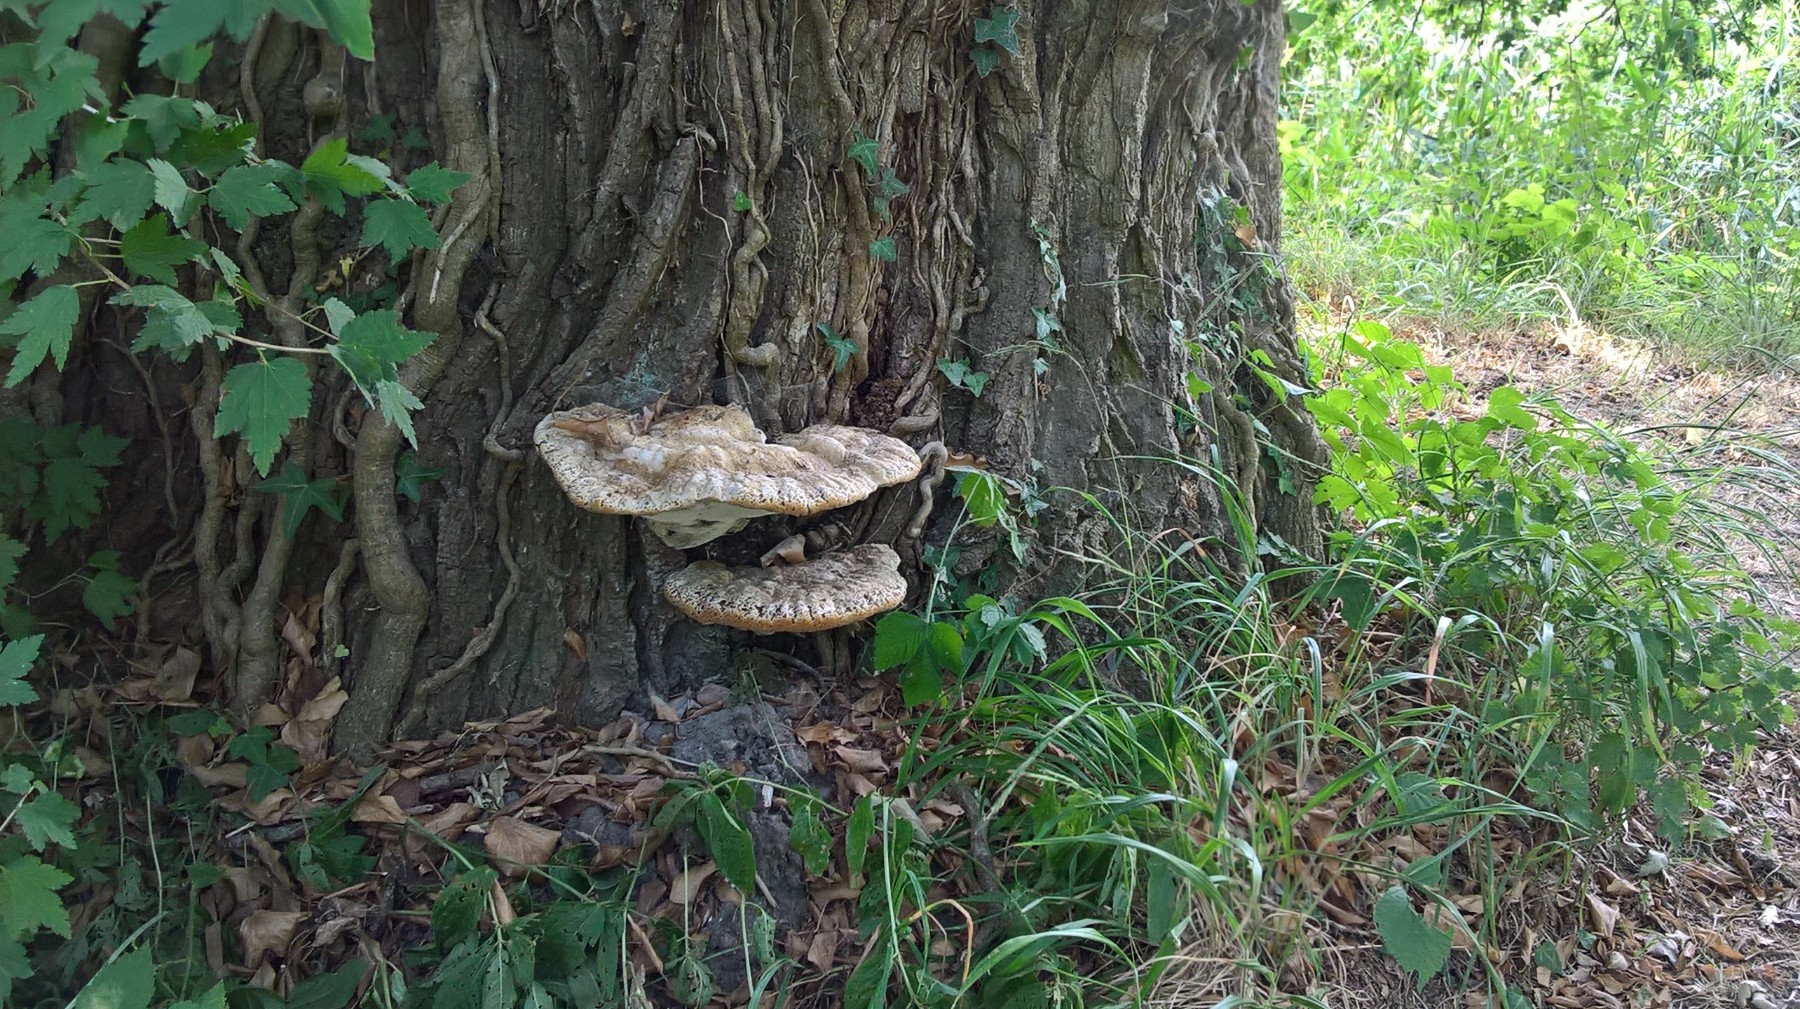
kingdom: Fungi
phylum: Basidiomycota
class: Agaricomycetes
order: Hymenochaetales
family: Hymenochaetaceae
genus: Pseudoinonotus
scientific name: Pseudoinonotus dryadeus
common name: ege-spejlporesvamp
